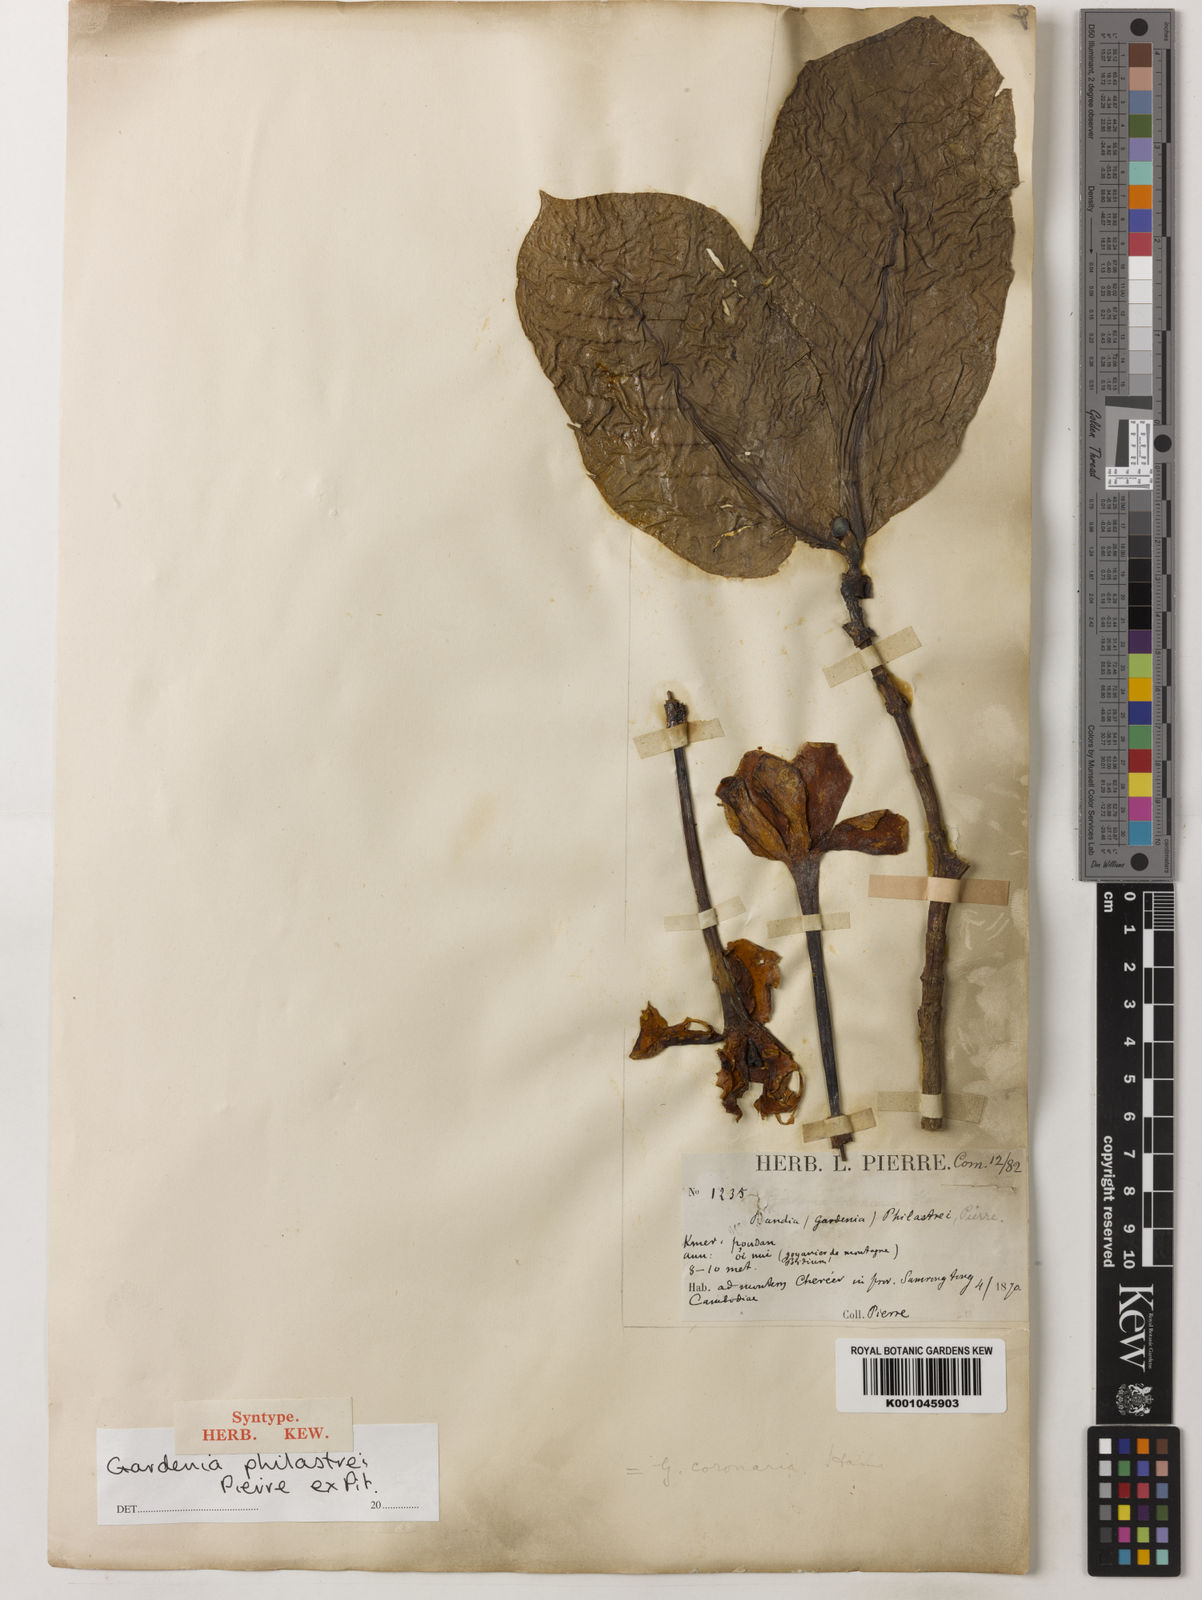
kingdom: Plantae
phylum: Tracheophyta
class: Magnoliopsida
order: Gentianales
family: Rubiaceae
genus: Gardenia
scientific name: Gardenia philastrei
